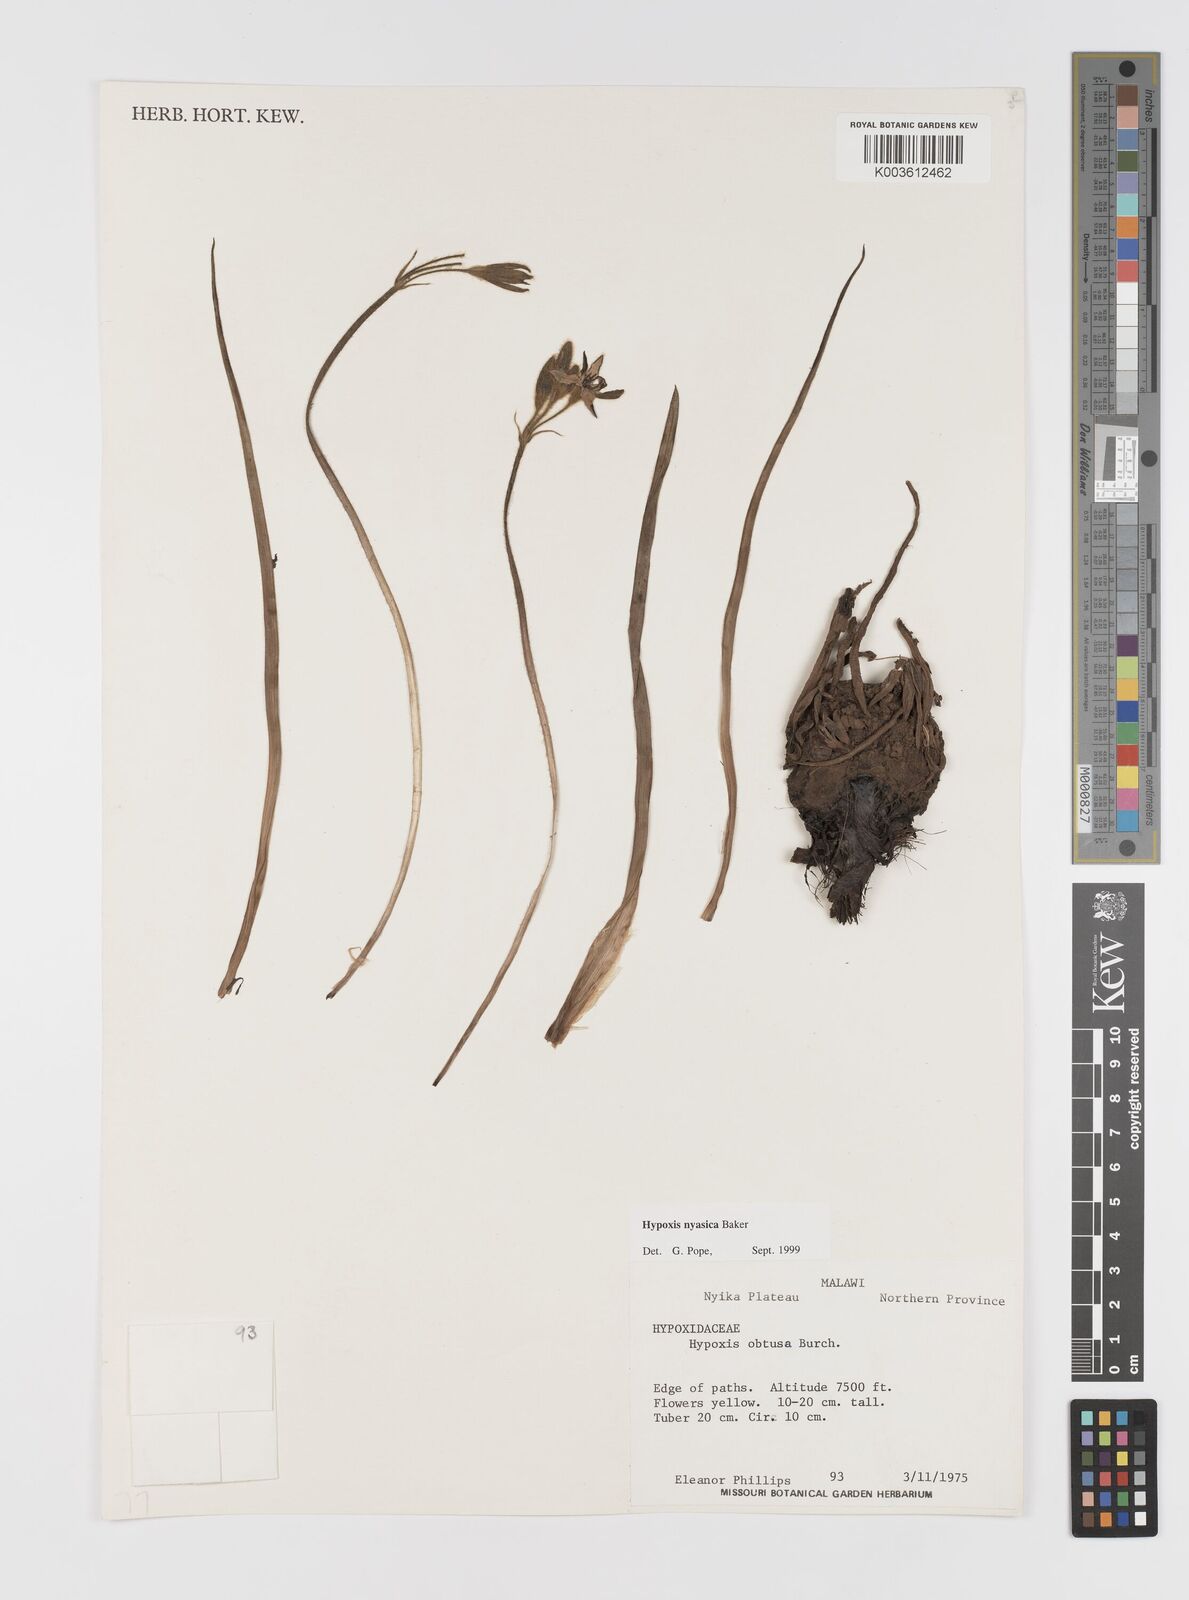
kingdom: Plantae
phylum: Tracheophyta
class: Liliopsida
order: Asparagales
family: Hypoxidaceae
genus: Hypoxis
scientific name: Hypoxis nyasica
